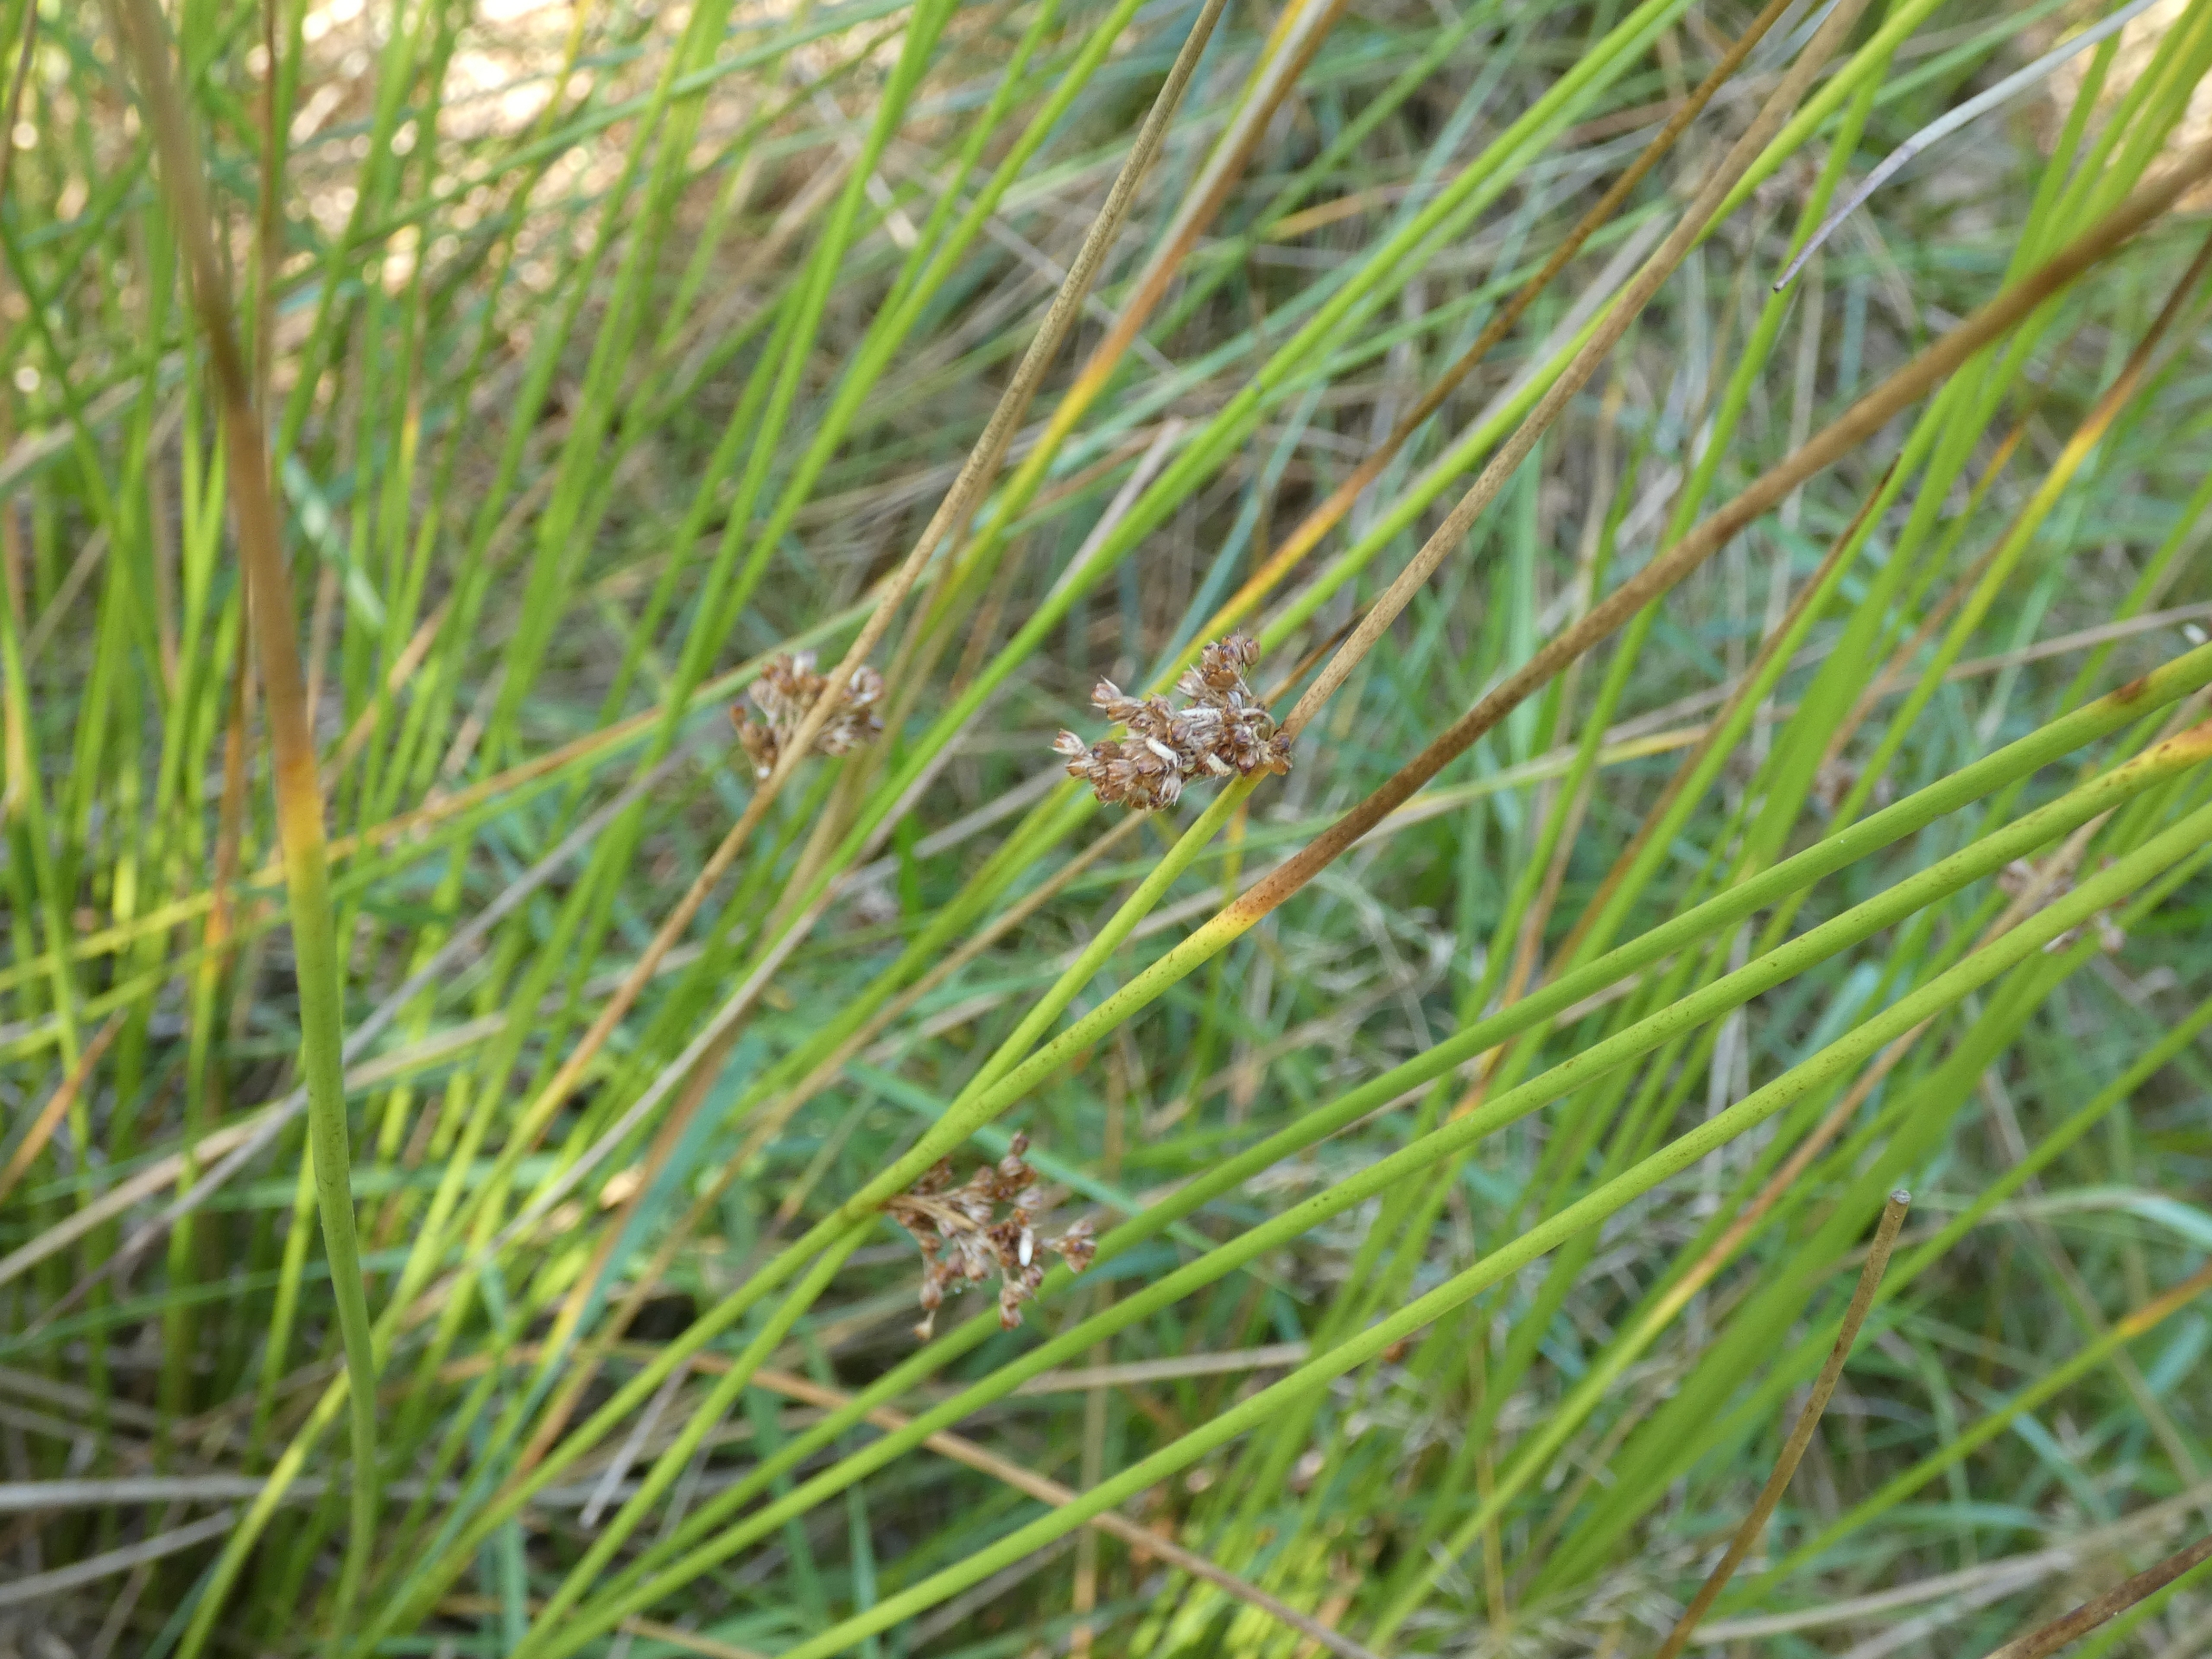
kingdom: Plantae
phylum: Tracheophyta
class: Liliopsida
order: Poales
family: Juncaceae
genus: Juncus
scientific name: Juncus effusus
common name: Lyse-siv
